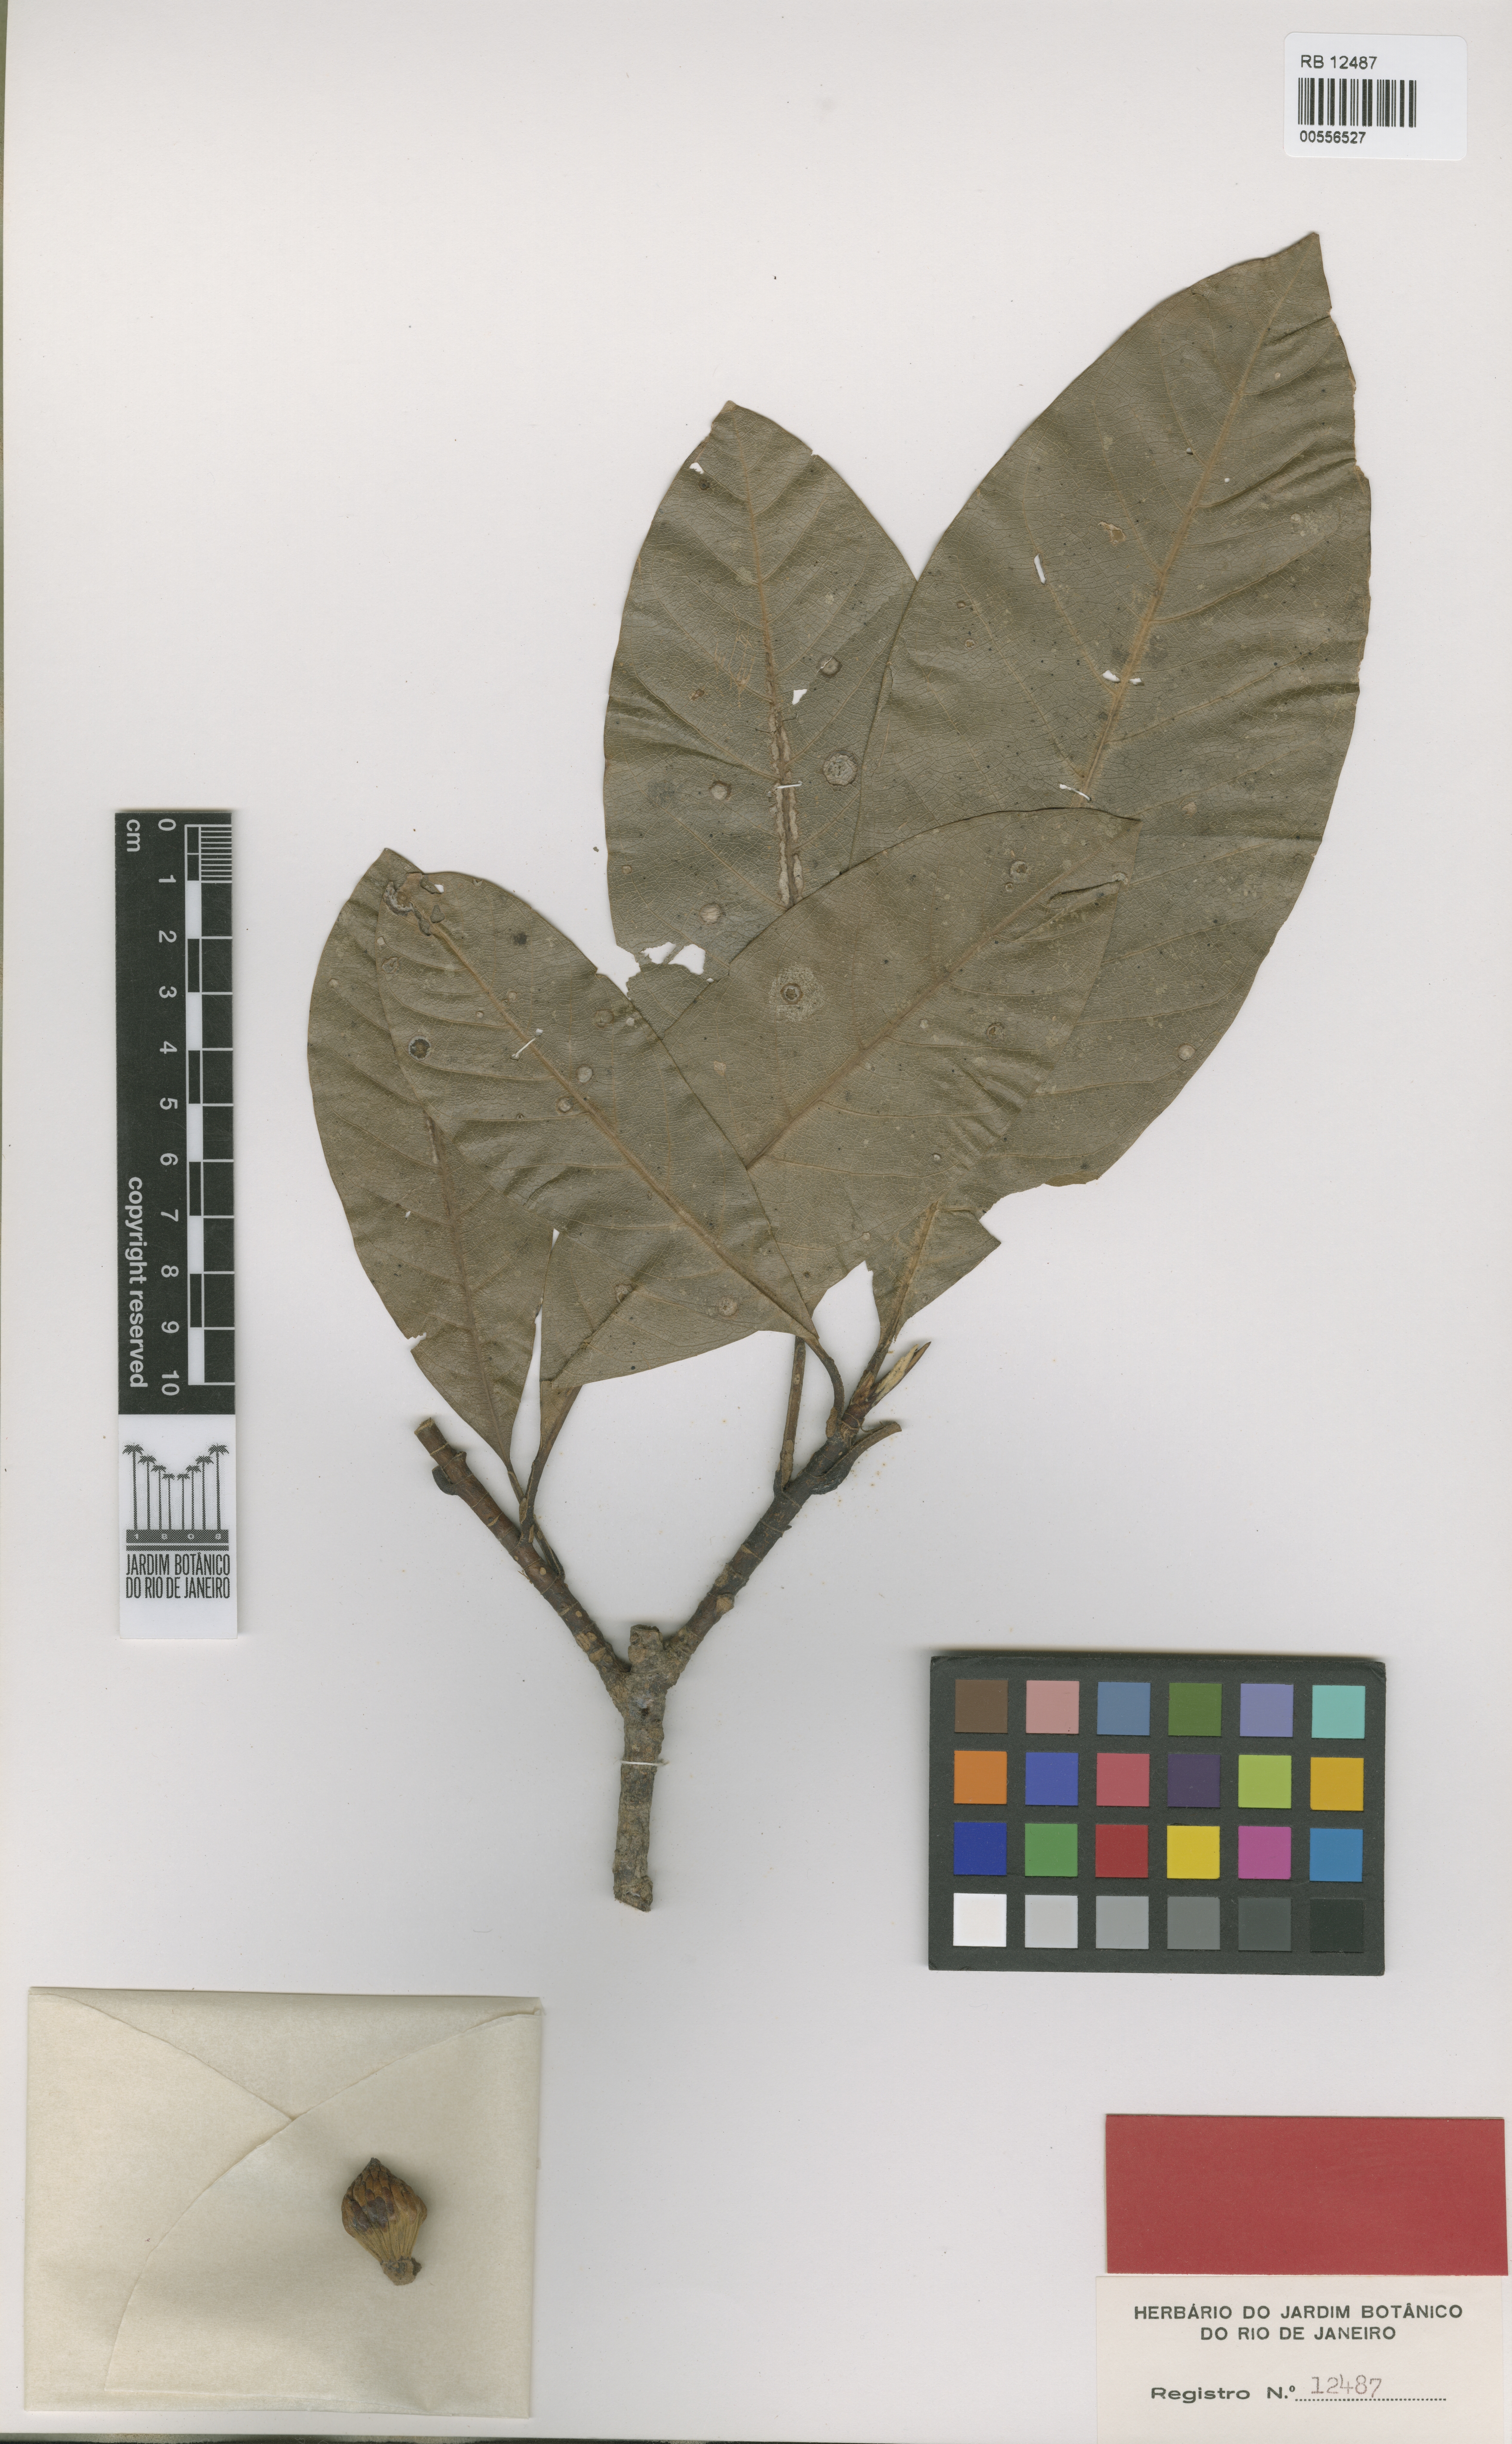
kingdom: Plantae
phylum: Tracheophyta
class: Magnoliopsida
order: Magnoliales
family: Magnoliaceae
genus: Magnolia
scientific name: Magnolia amazonica
